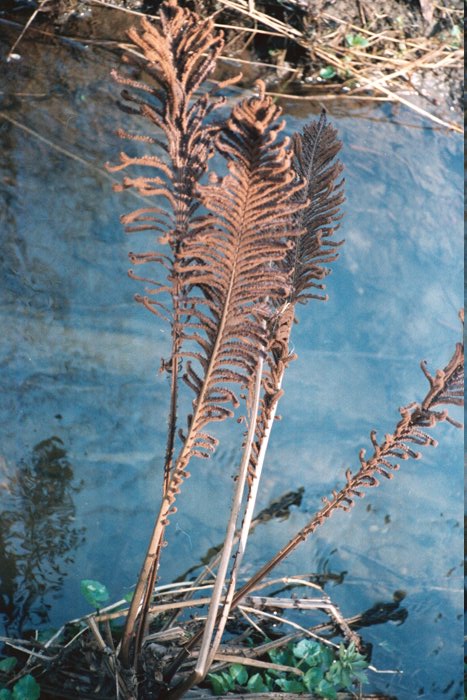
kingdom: Plantae
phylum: Tracheophyta
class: Polypodiopsida
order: Polypodiales
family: Onocleaceae
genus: Matteuccia
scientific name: Matteuccia struthiopteris
